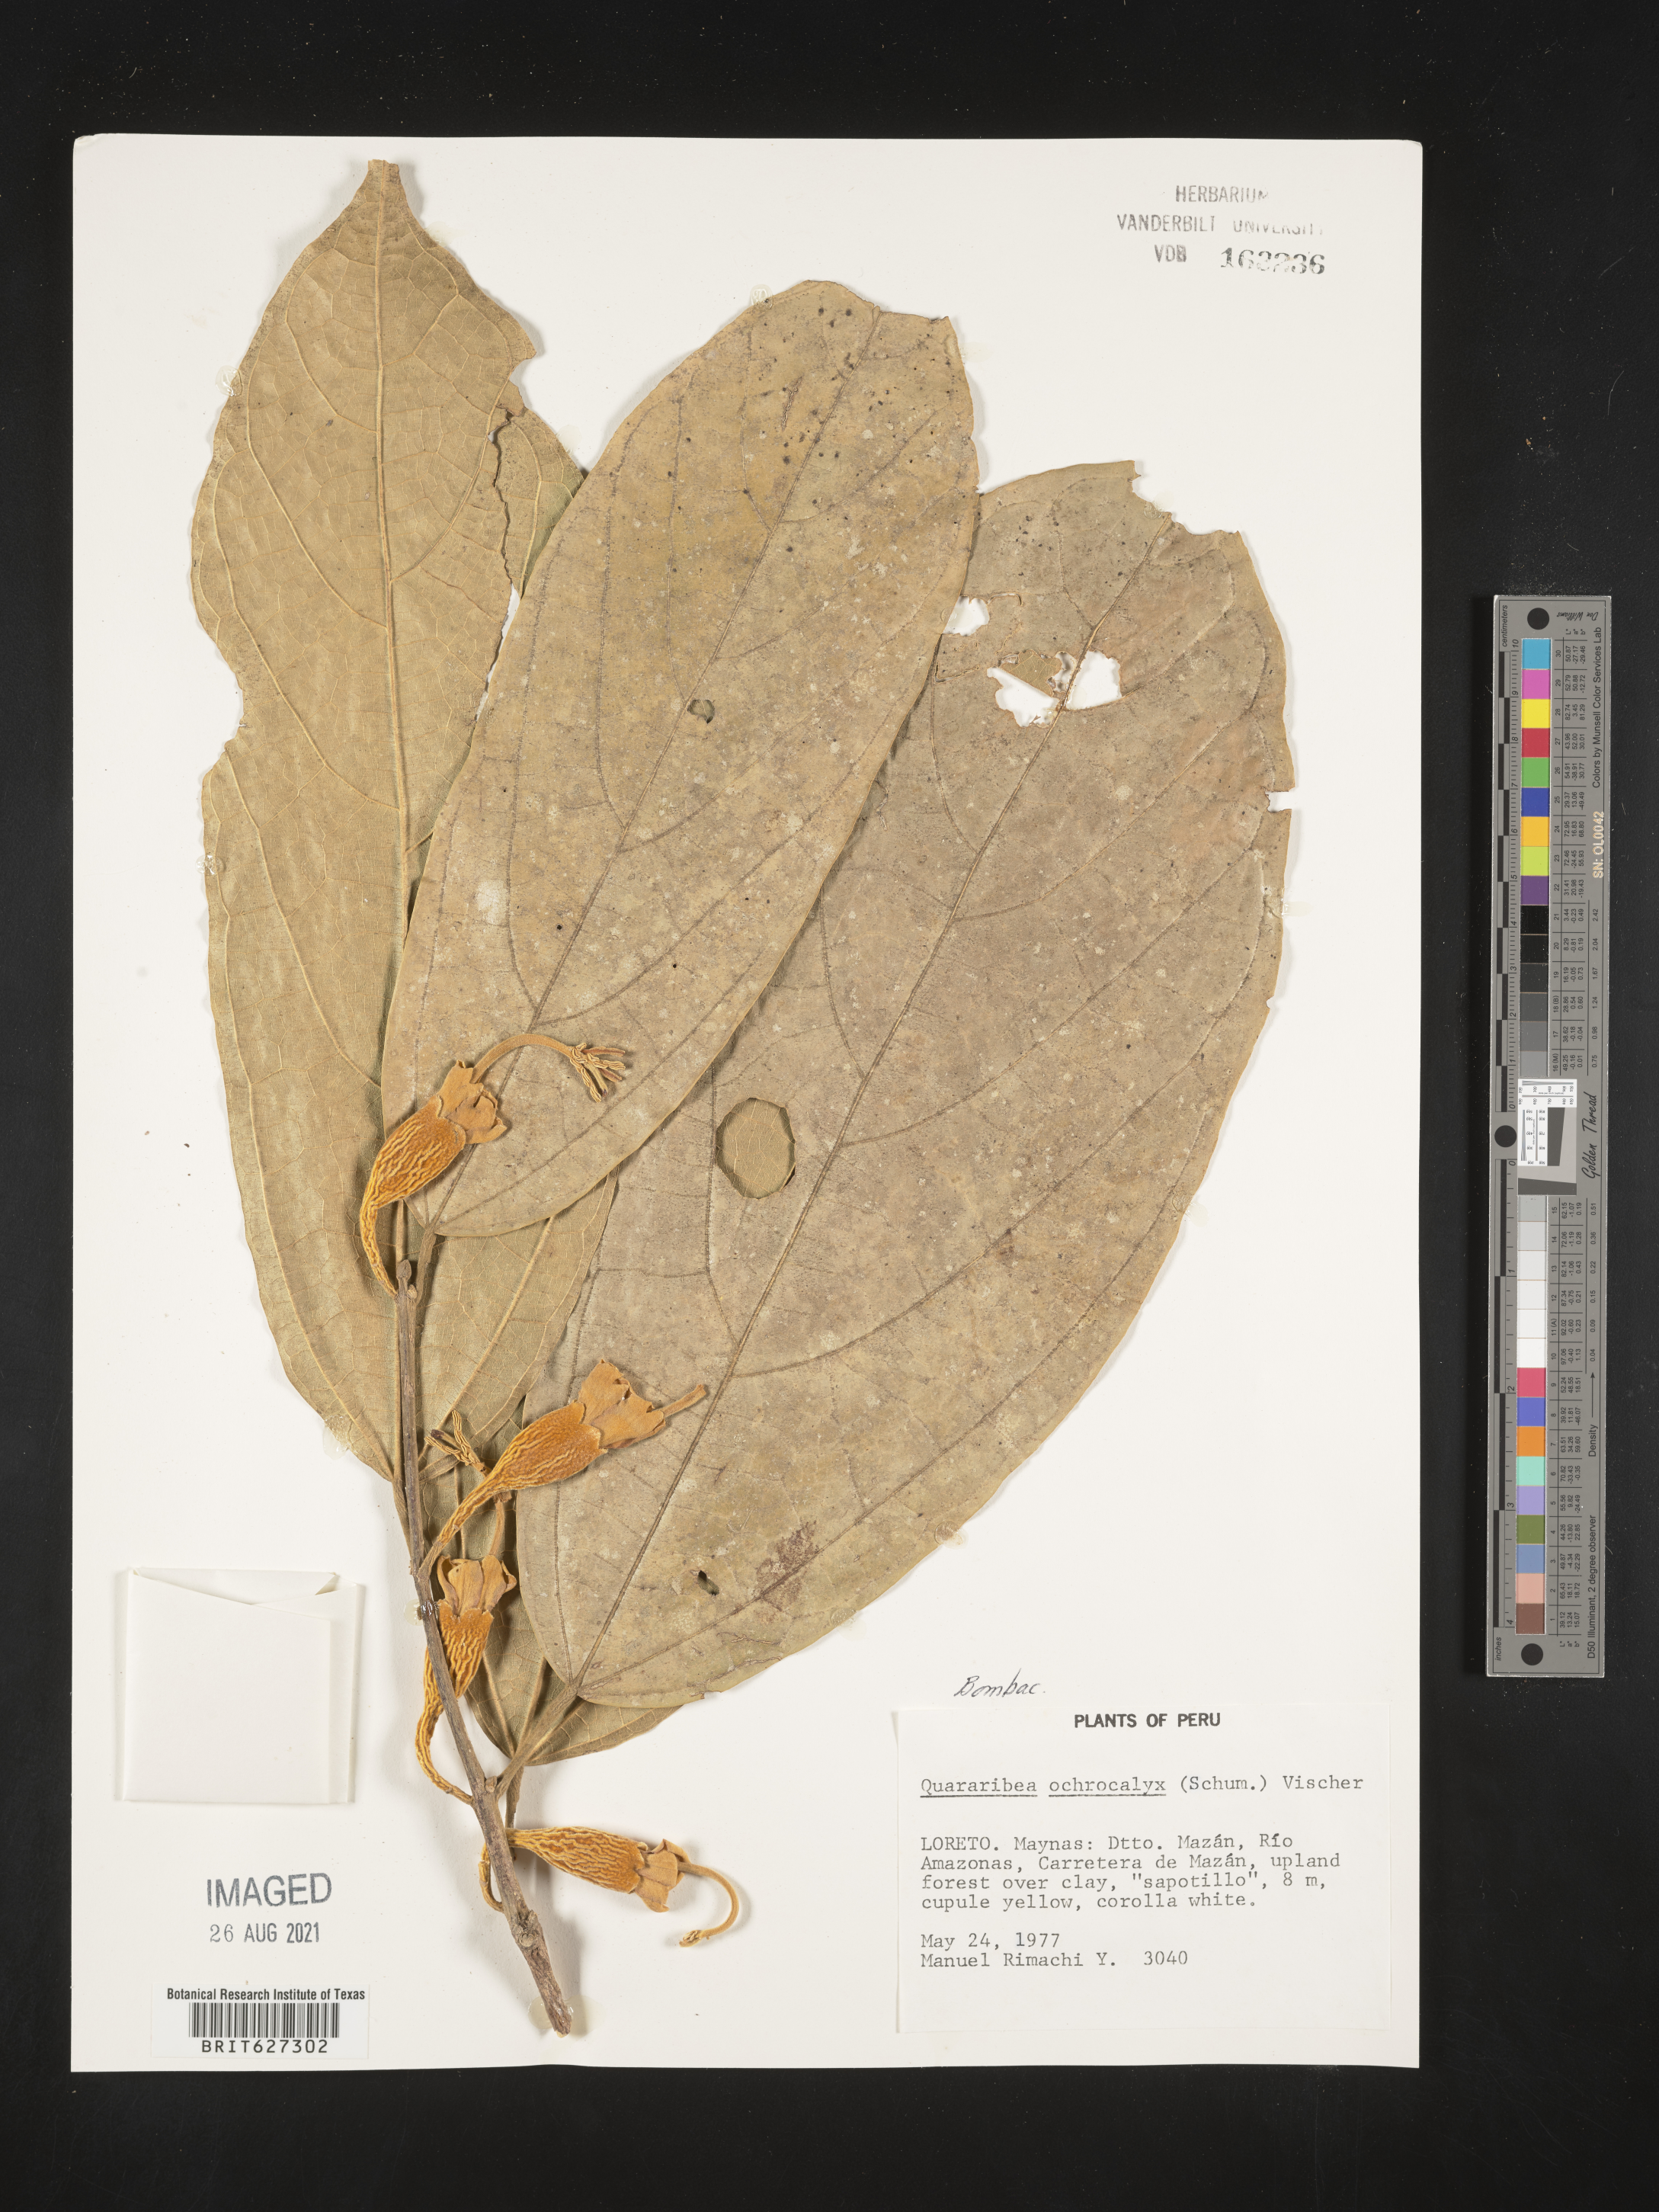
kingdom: Plantae
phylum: Tracheophyta
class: Magnoliopsida
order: Malvales
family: Malvaceae
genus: Quararibea
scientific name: Quararibea
